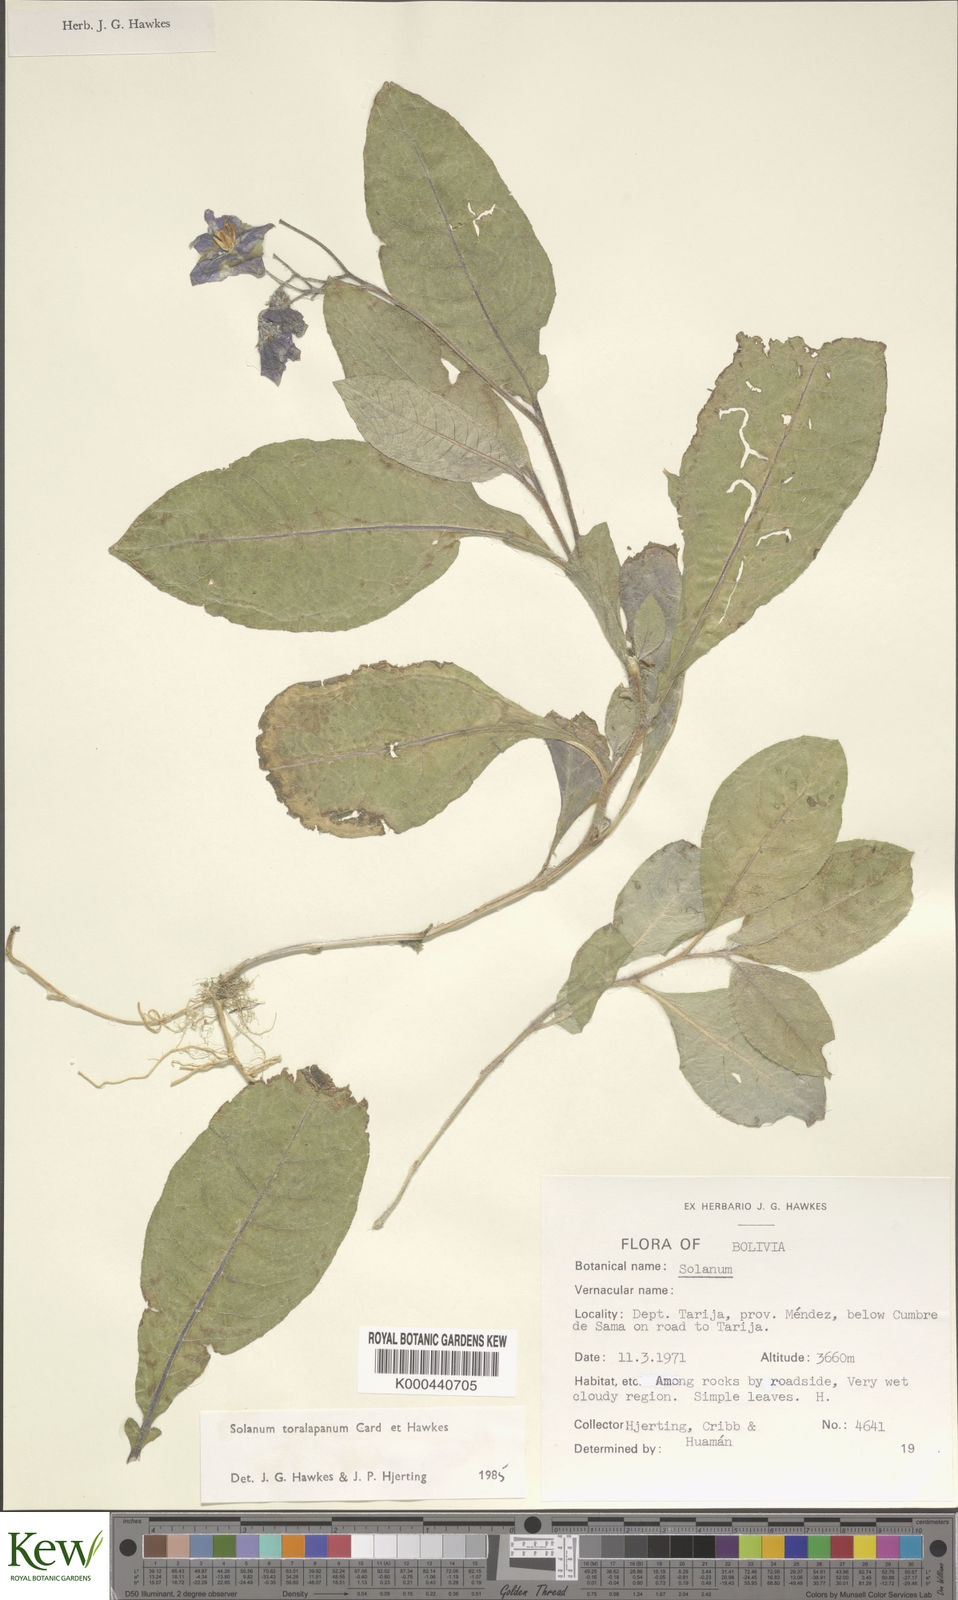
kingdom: Plantae
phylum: Tracheophyta
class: Magnoliopsida
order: Solanales
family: Solanaceae
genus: Solanum
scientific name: Solanum boliviense
